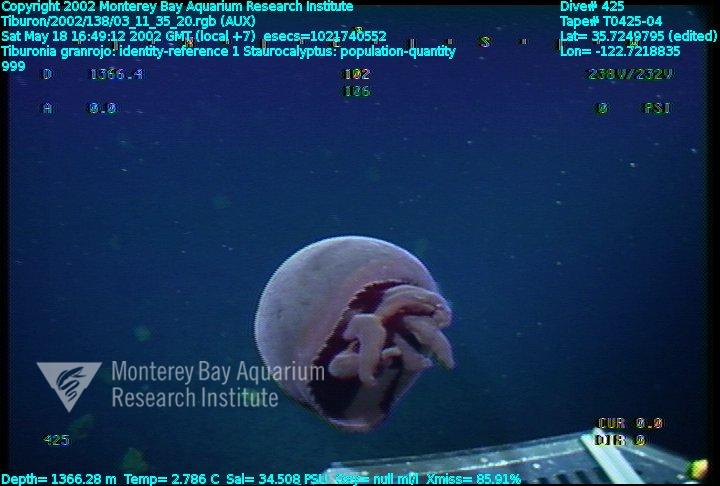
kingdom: Animalia
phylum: Porifera
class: Hexactinellida
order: Lyssacinosida
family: Rossellidae
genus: Staurocalyptus
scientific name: Staurocalyptus
